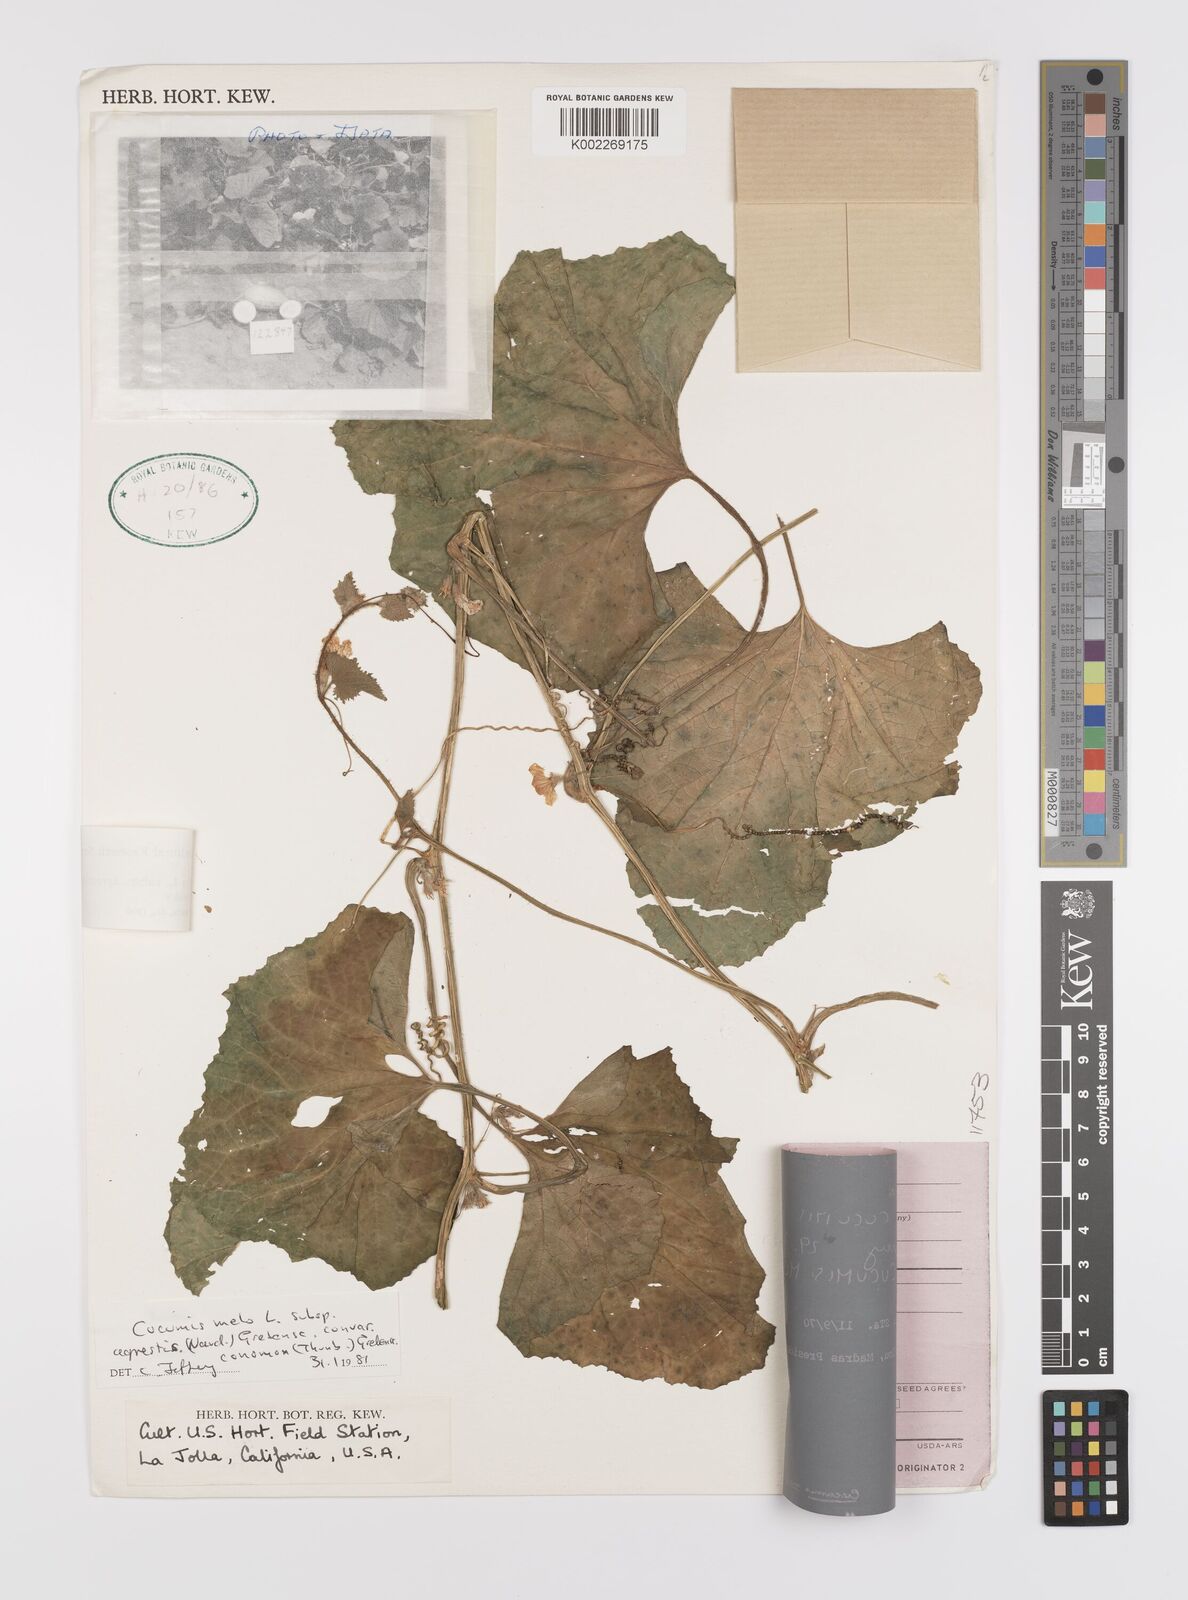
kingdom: Plantae
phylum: Tracheophyta
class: Magnoliopsida
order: Cucurbitales
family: Cucurbitaceae
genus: Cucumis
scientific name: Cucumis melo
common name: Melon
